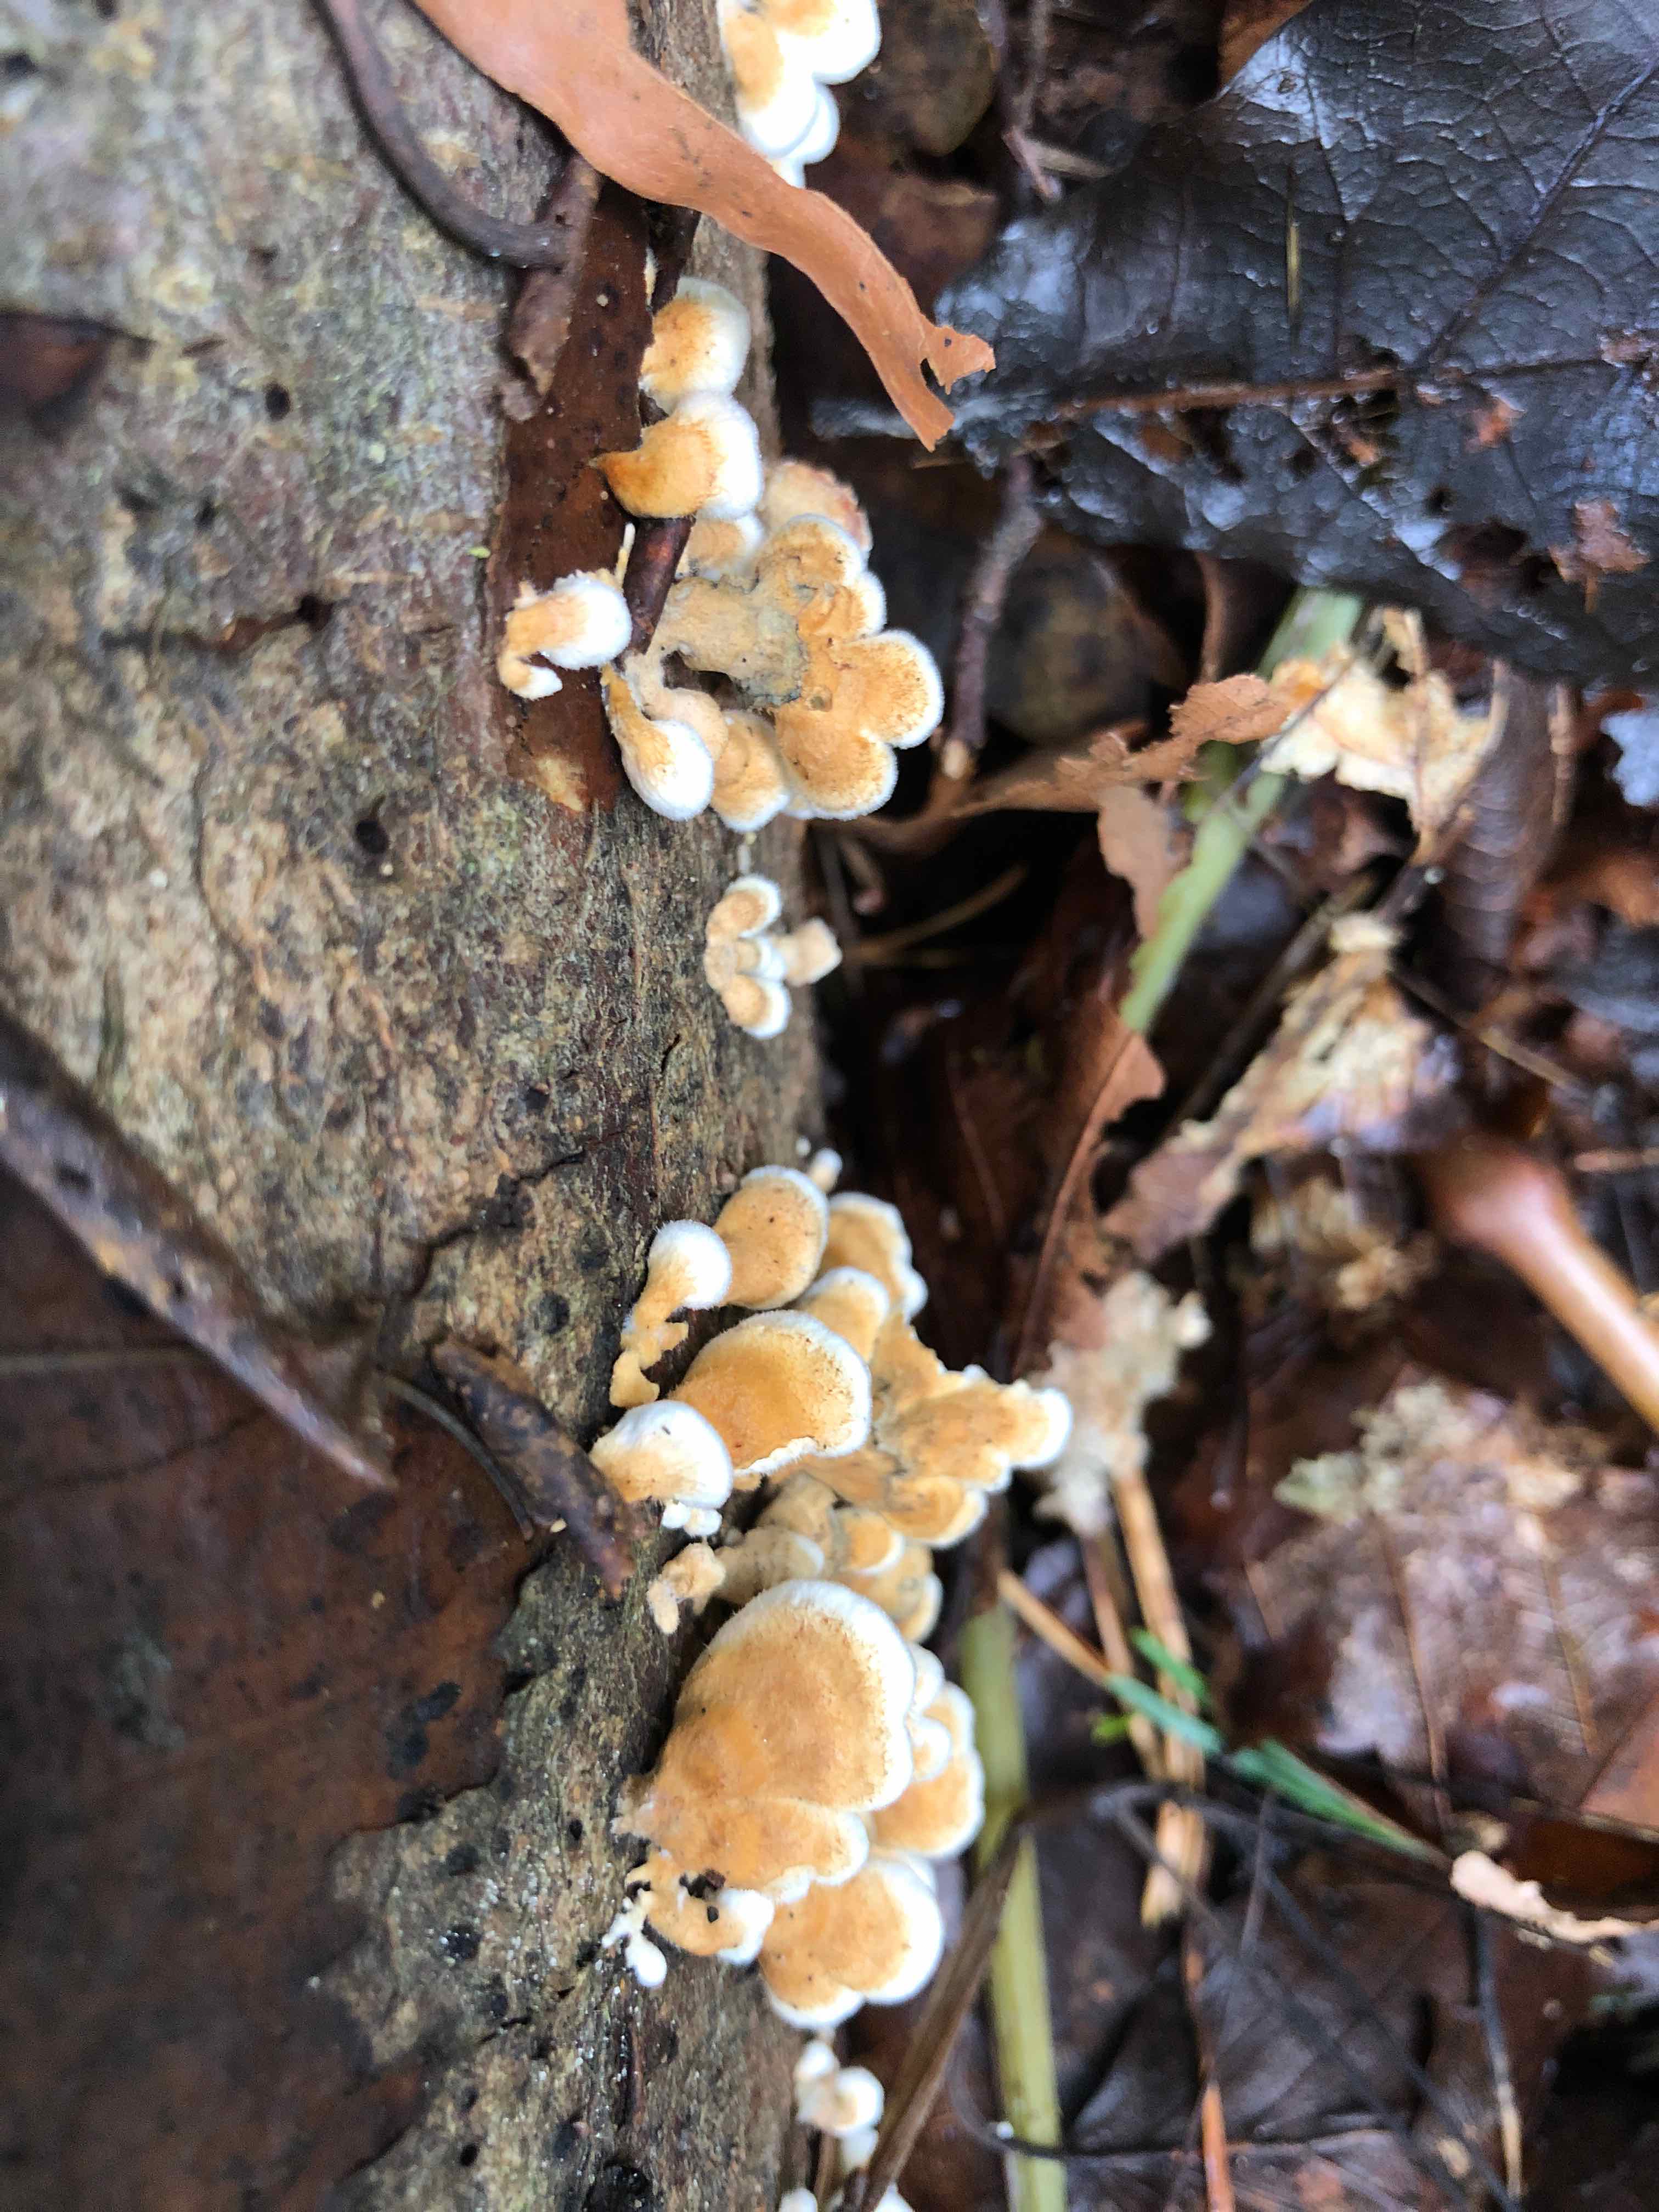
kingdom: Fungi
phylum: Basidiomycota
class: Agaricomycetes
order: Amylocorticiales
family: Amylocorticiaceae
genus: Plicaturopsis
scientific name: Plicaturopsis crispa
